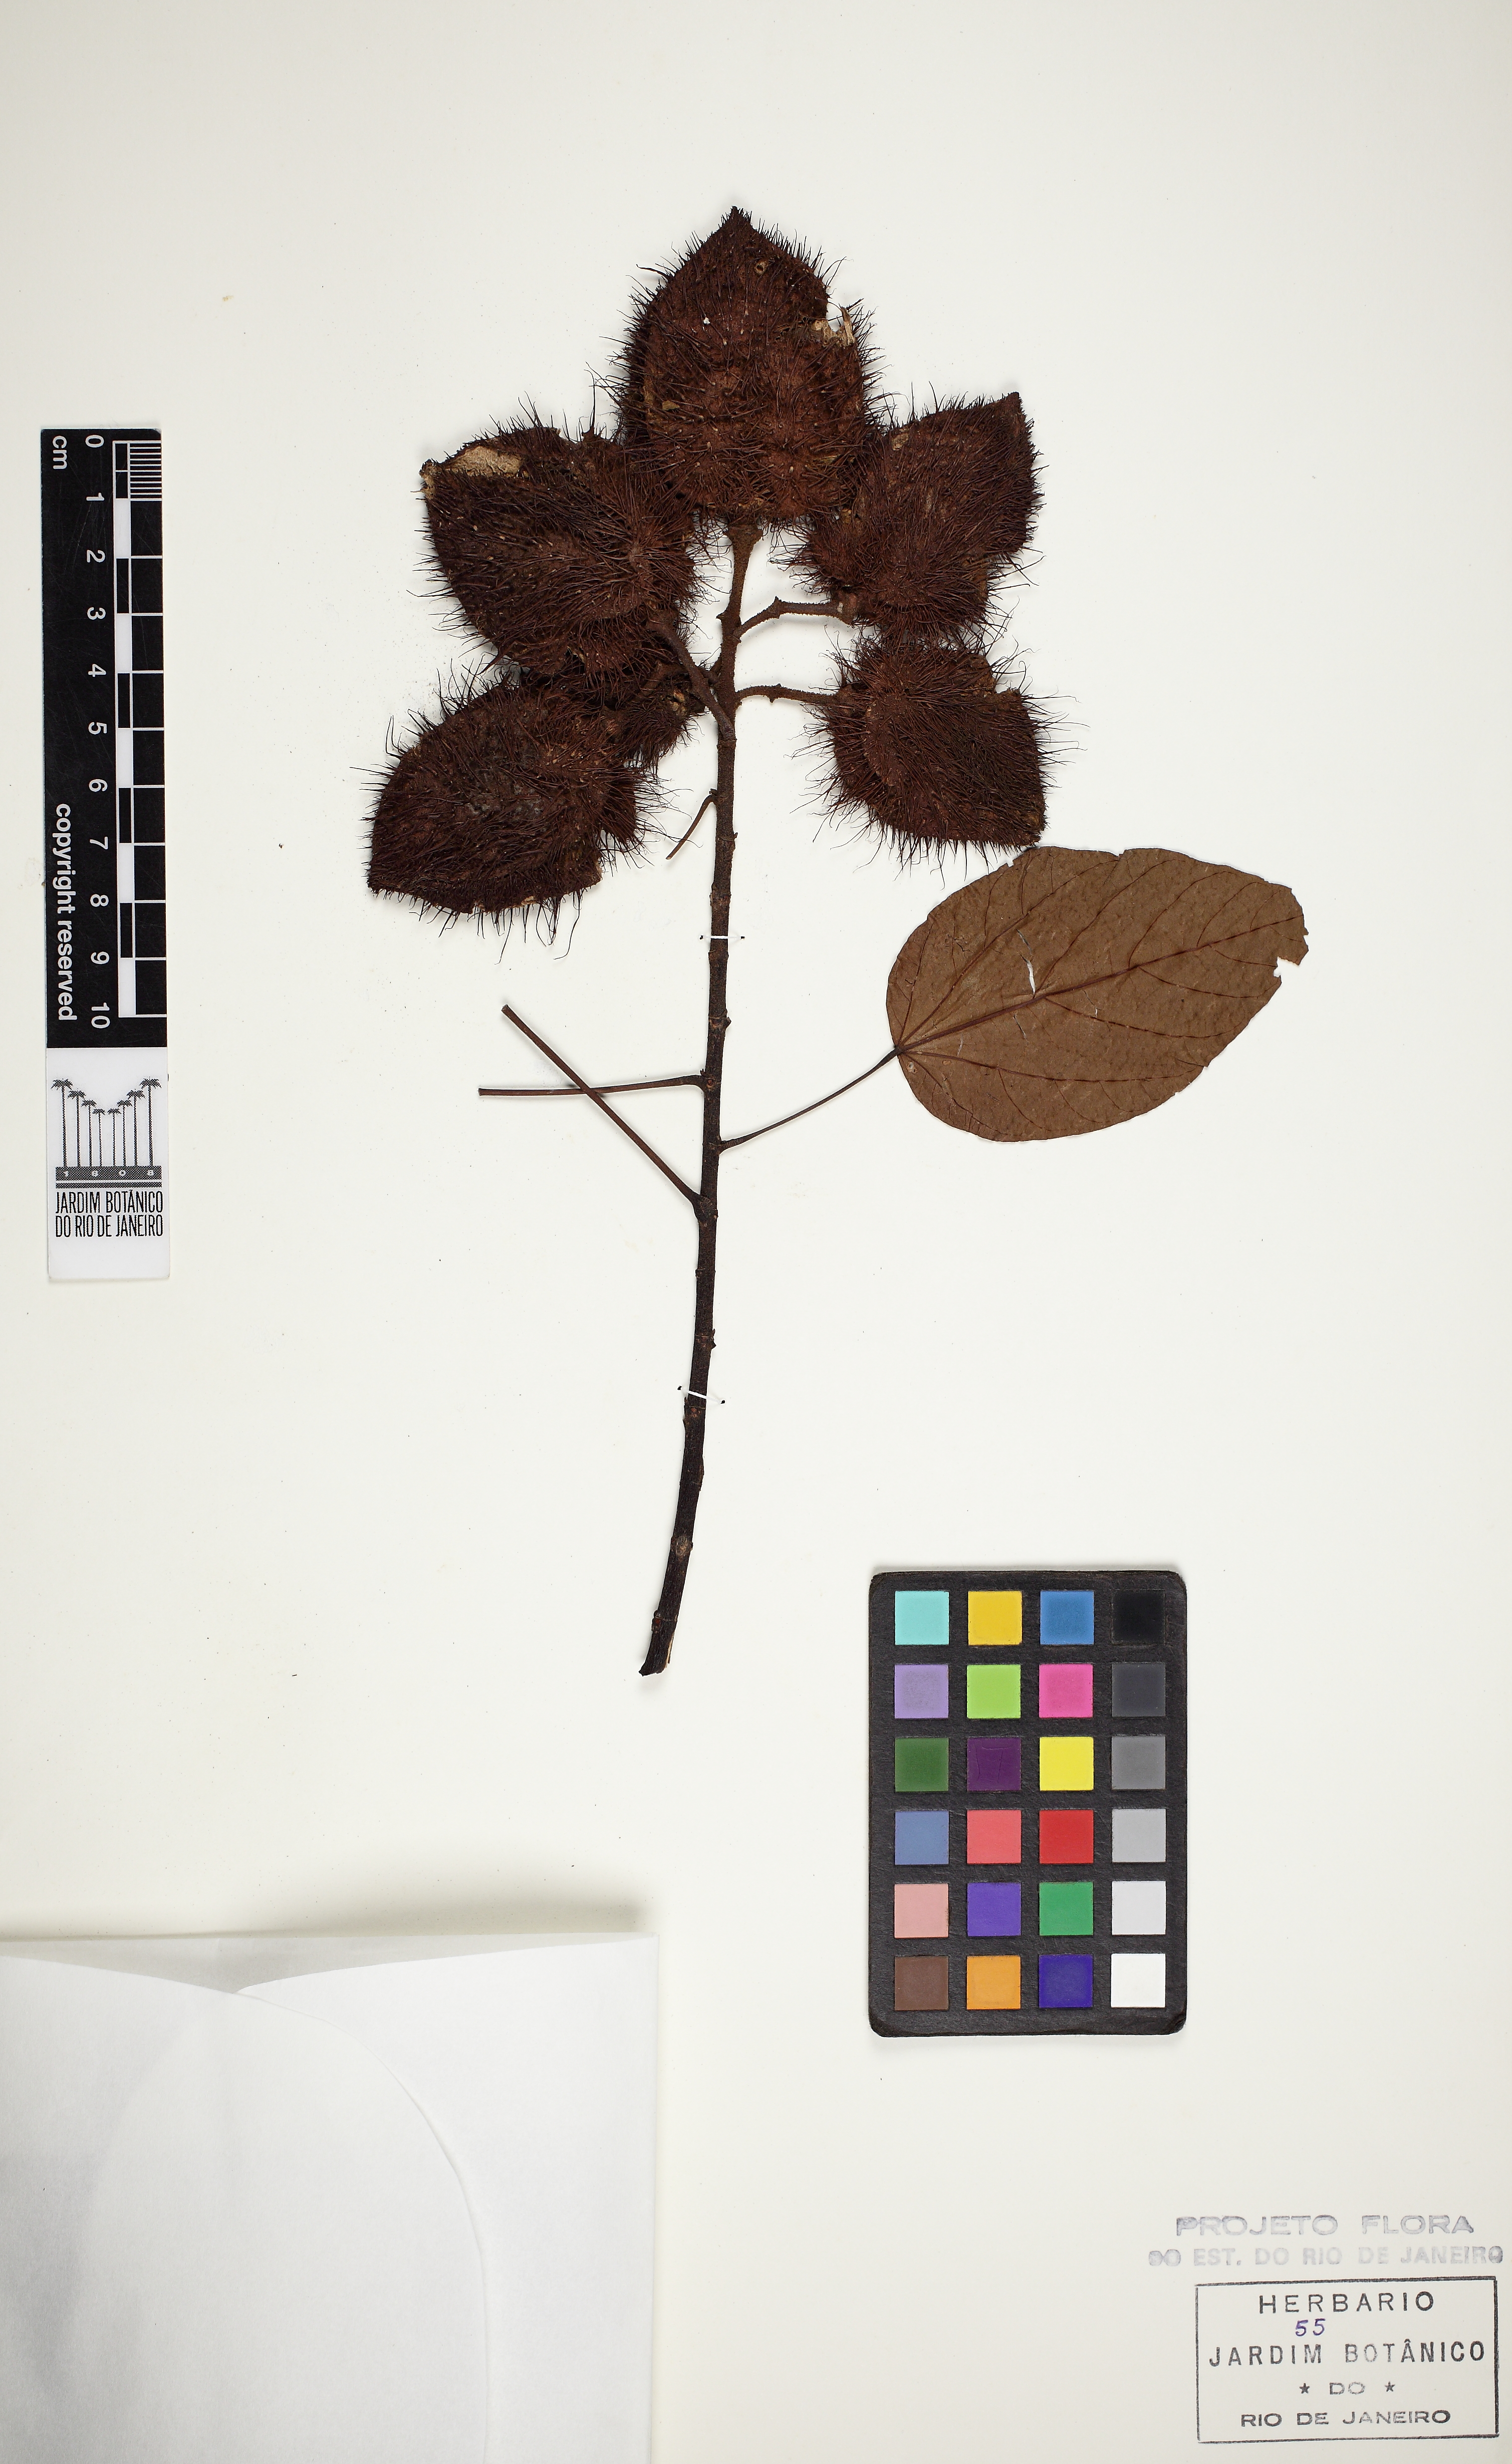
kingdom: Plantae
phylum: Tracheophyta
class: Magnoliopsida
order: Malvales
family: Bixaceae
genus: Bixa
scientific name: Bixa orellana
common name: Lipsticktree
